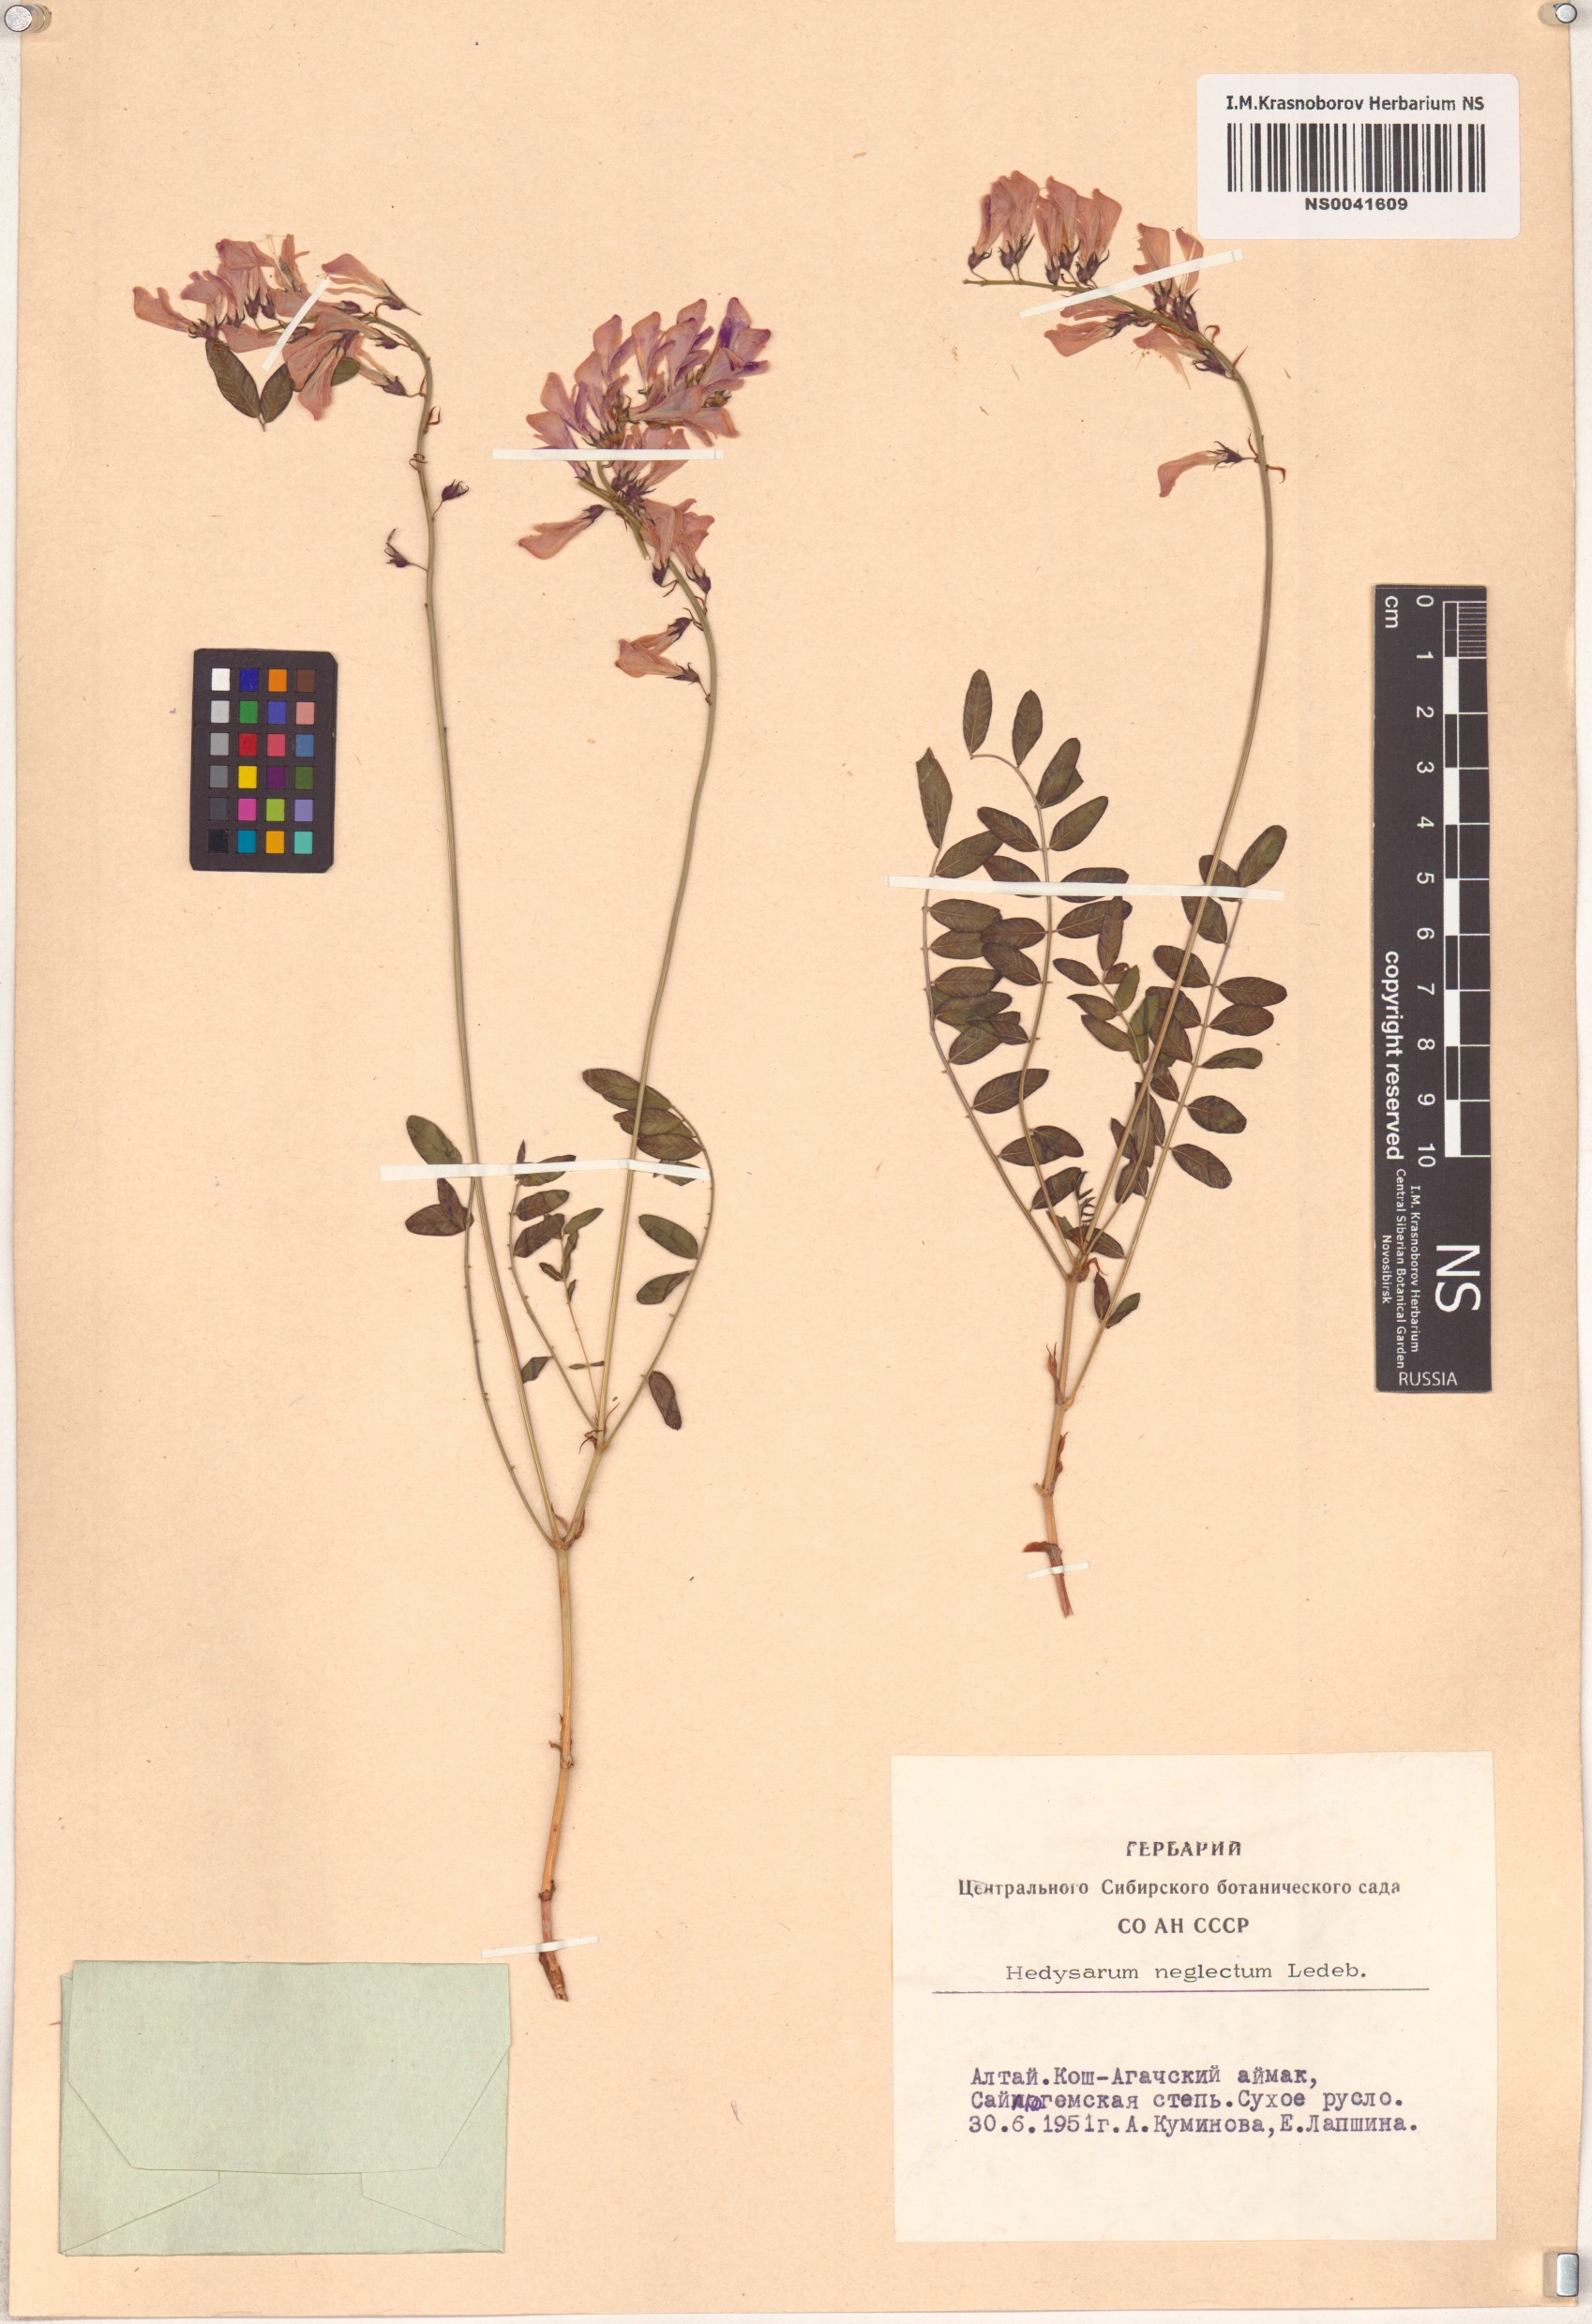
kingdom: Plantae
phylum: Tracheophyta
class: Magnoliopsida
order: Fabales
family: Fabaceae
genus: Hedysarum
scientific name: Hedysarum neglectum
